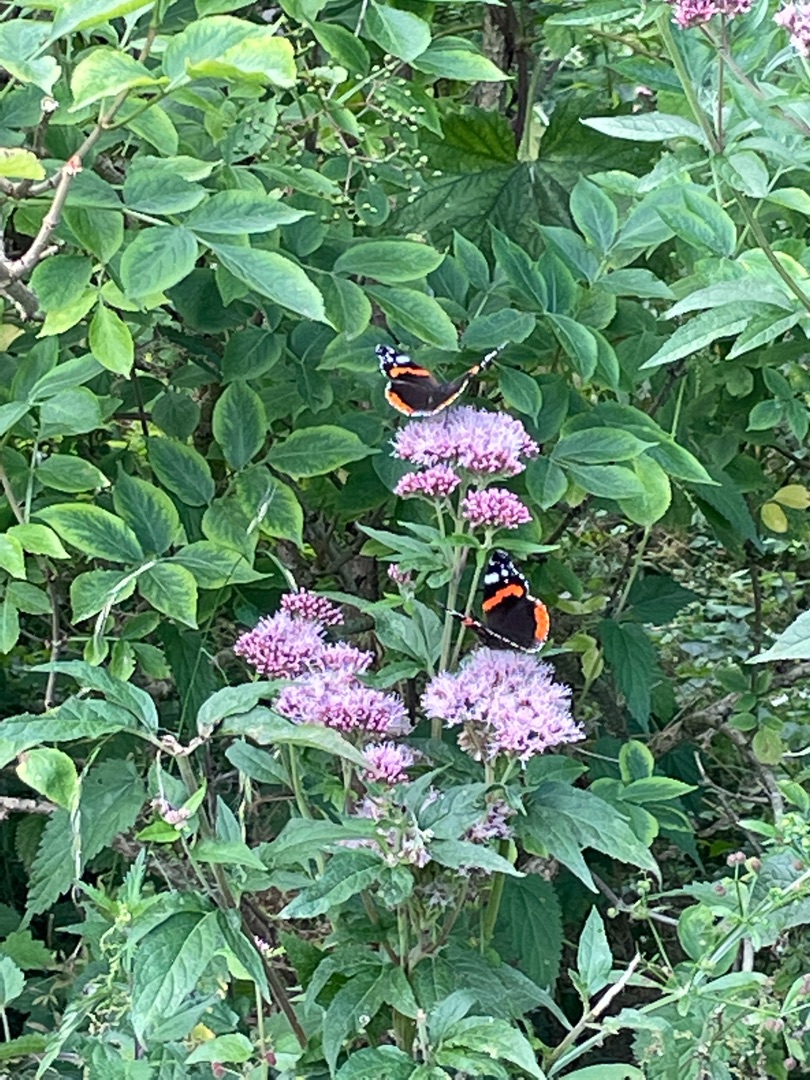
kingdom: Animalia
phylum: Arthropoda
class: Insecta
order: Lepidoptera
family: Nymphalidae
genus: Vanessa
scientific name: Vanessa atalanta
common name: Admiral
